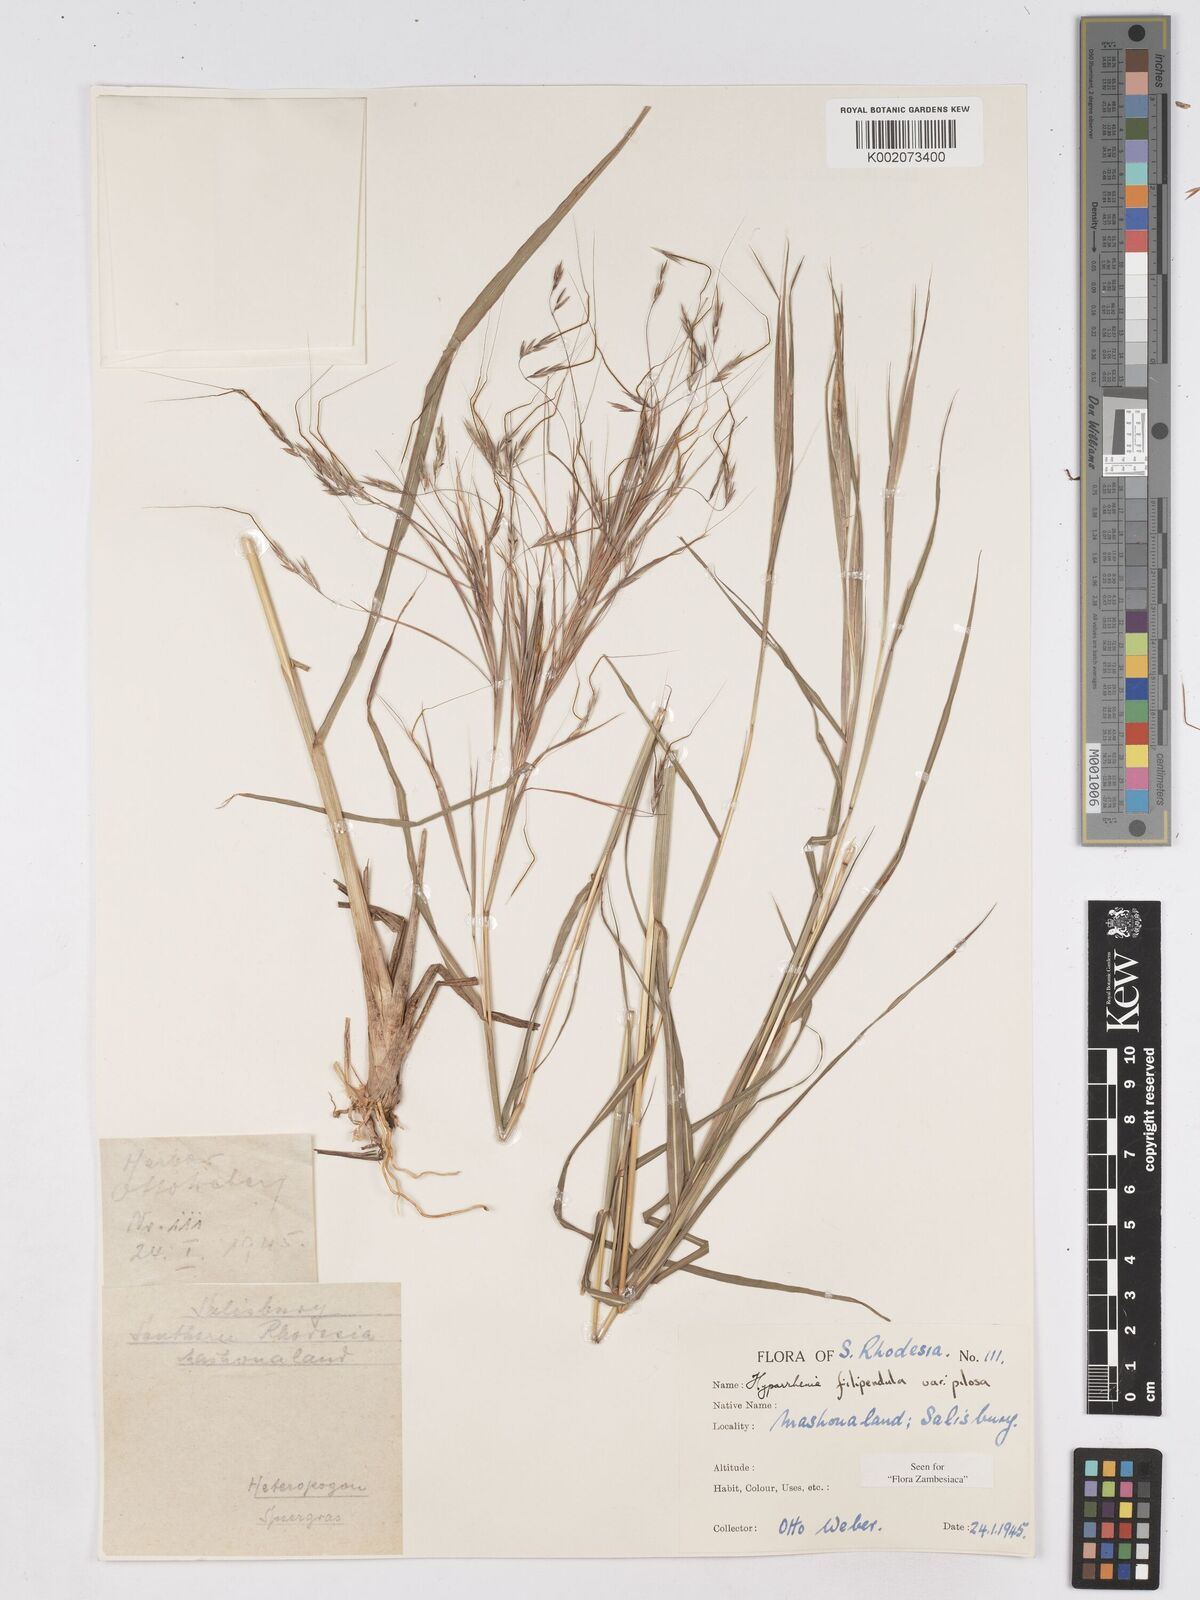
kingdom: Plantae
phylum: Tracheophyta
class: Liliopsida
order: Poales
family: Poaceae
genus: Hyparrhenia
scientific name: Hyparrhenia filipendula
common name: Tambookie grass
